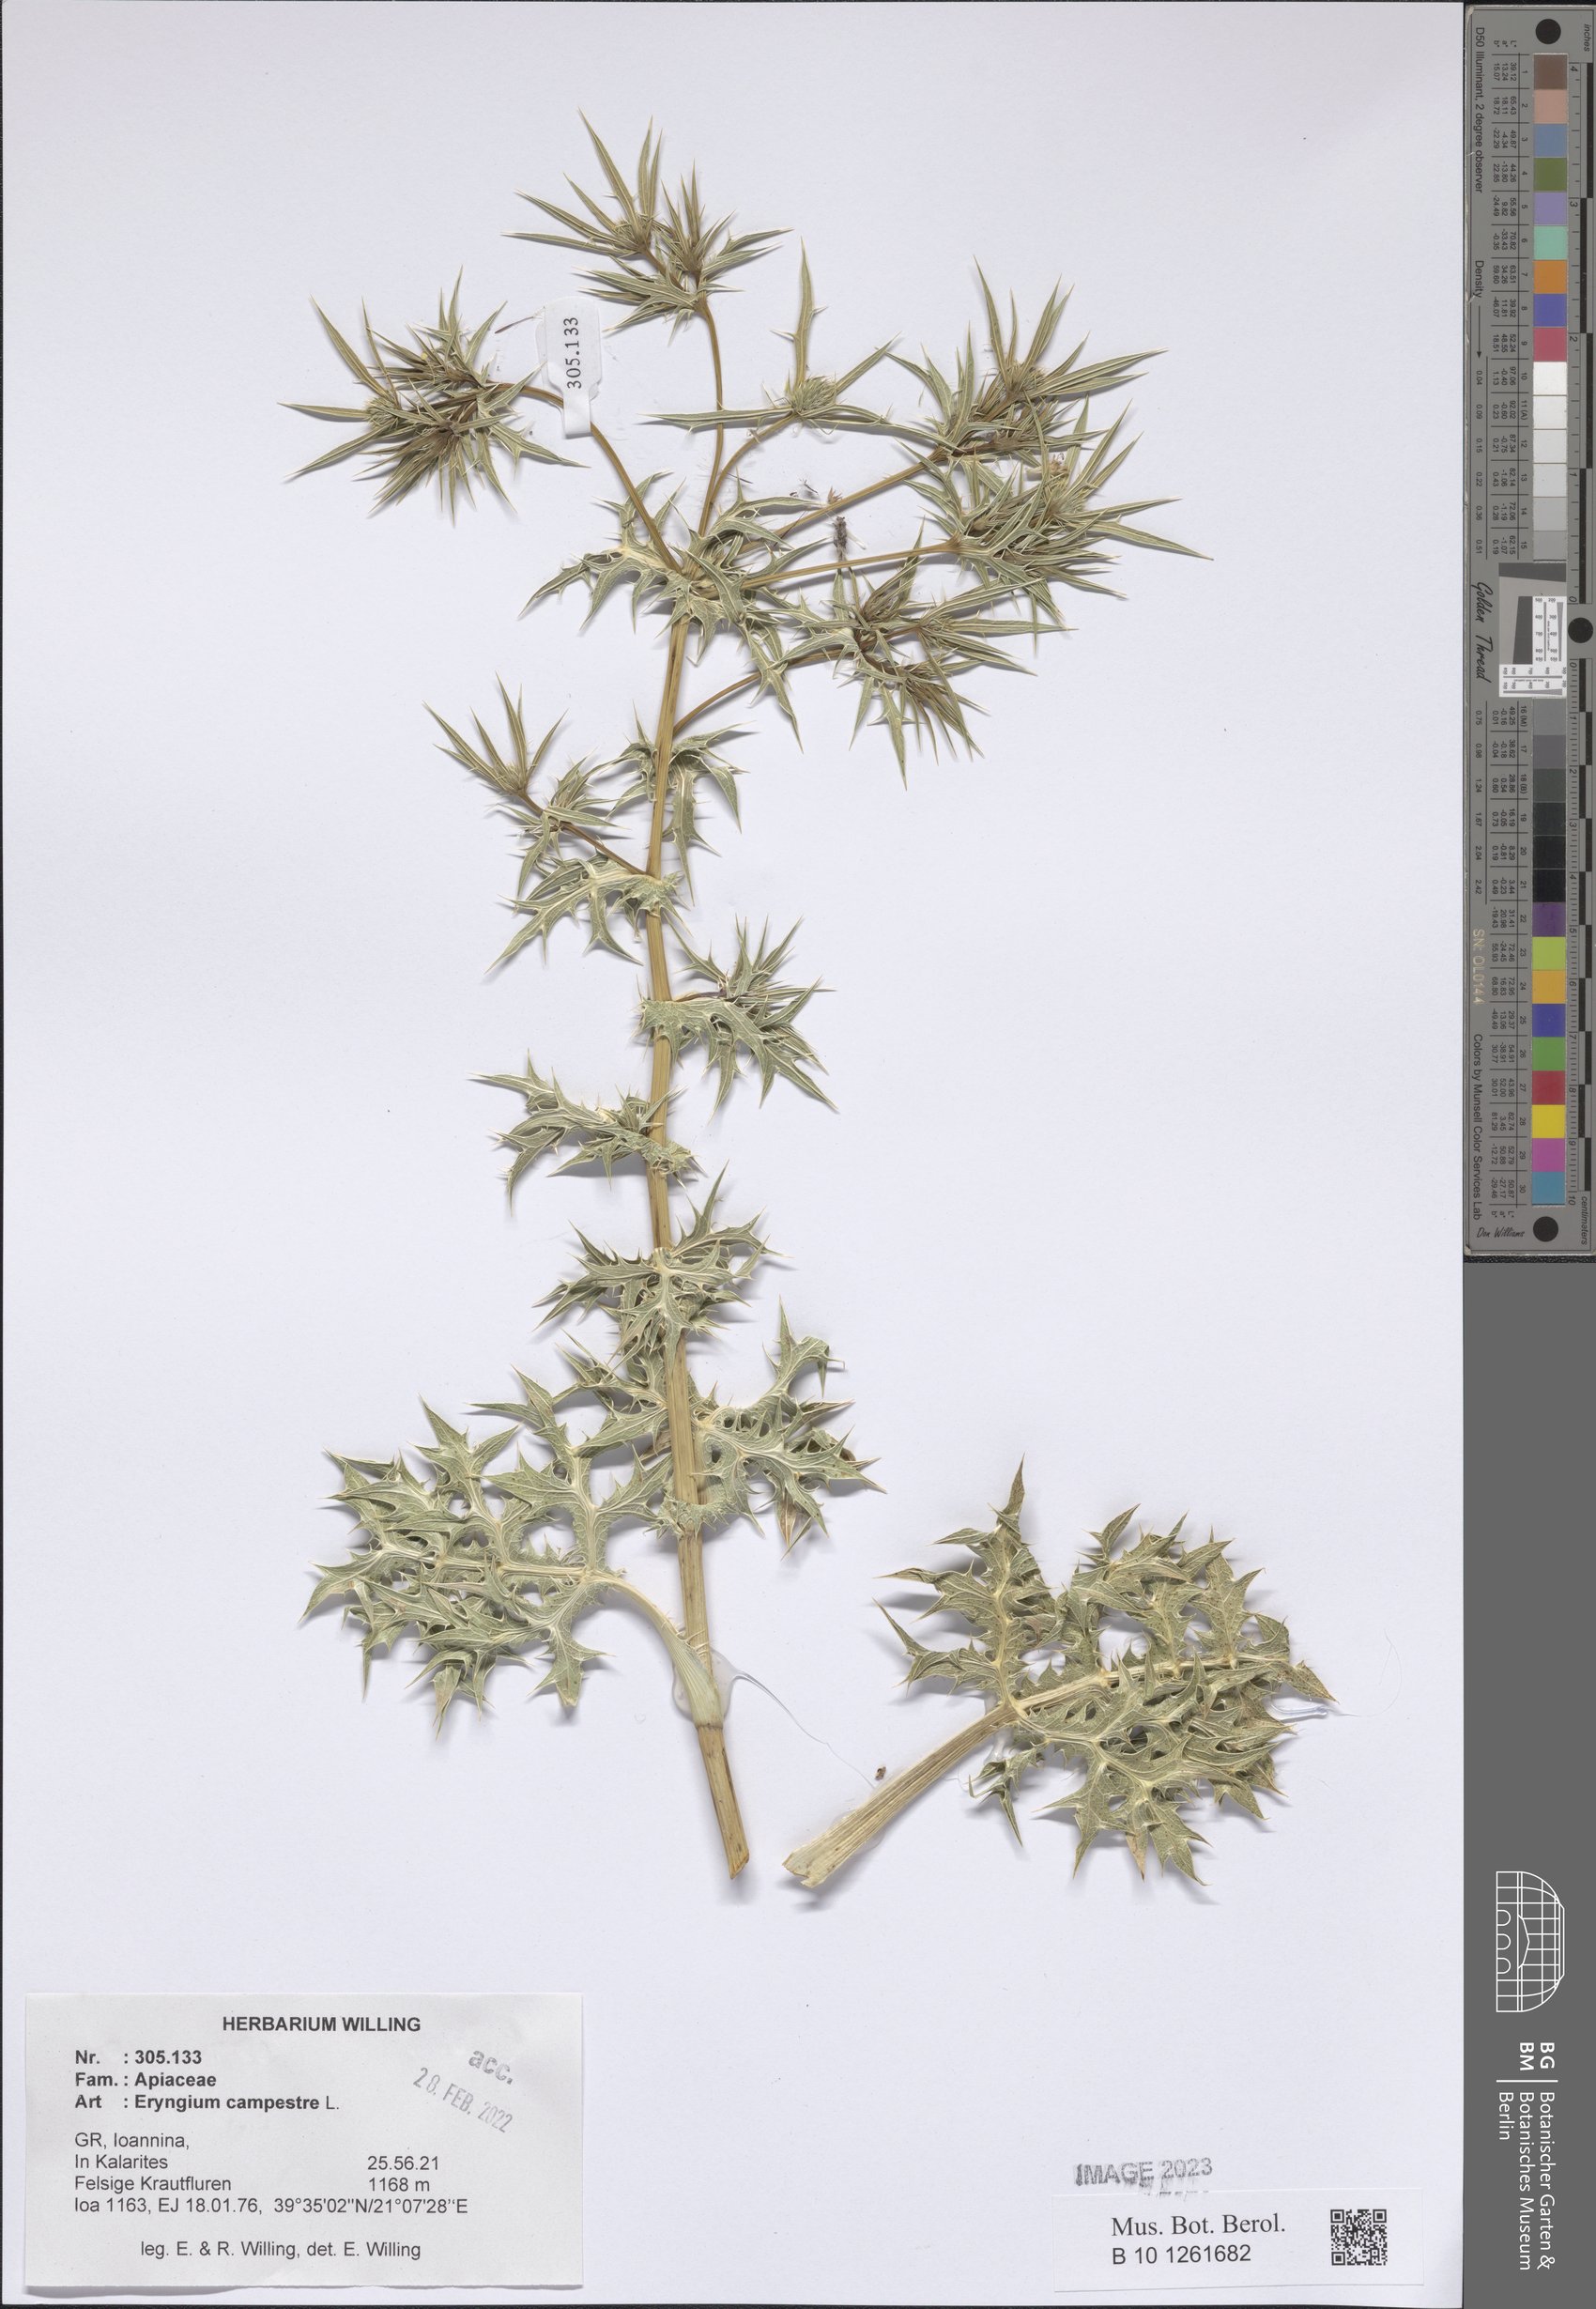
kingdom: Plantae
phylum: Tracheophyta
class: Magnoliopsida
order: Apiales
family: Apiaceae
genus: Eryngium
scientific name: Eryngium campestre
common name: Field eryngo
